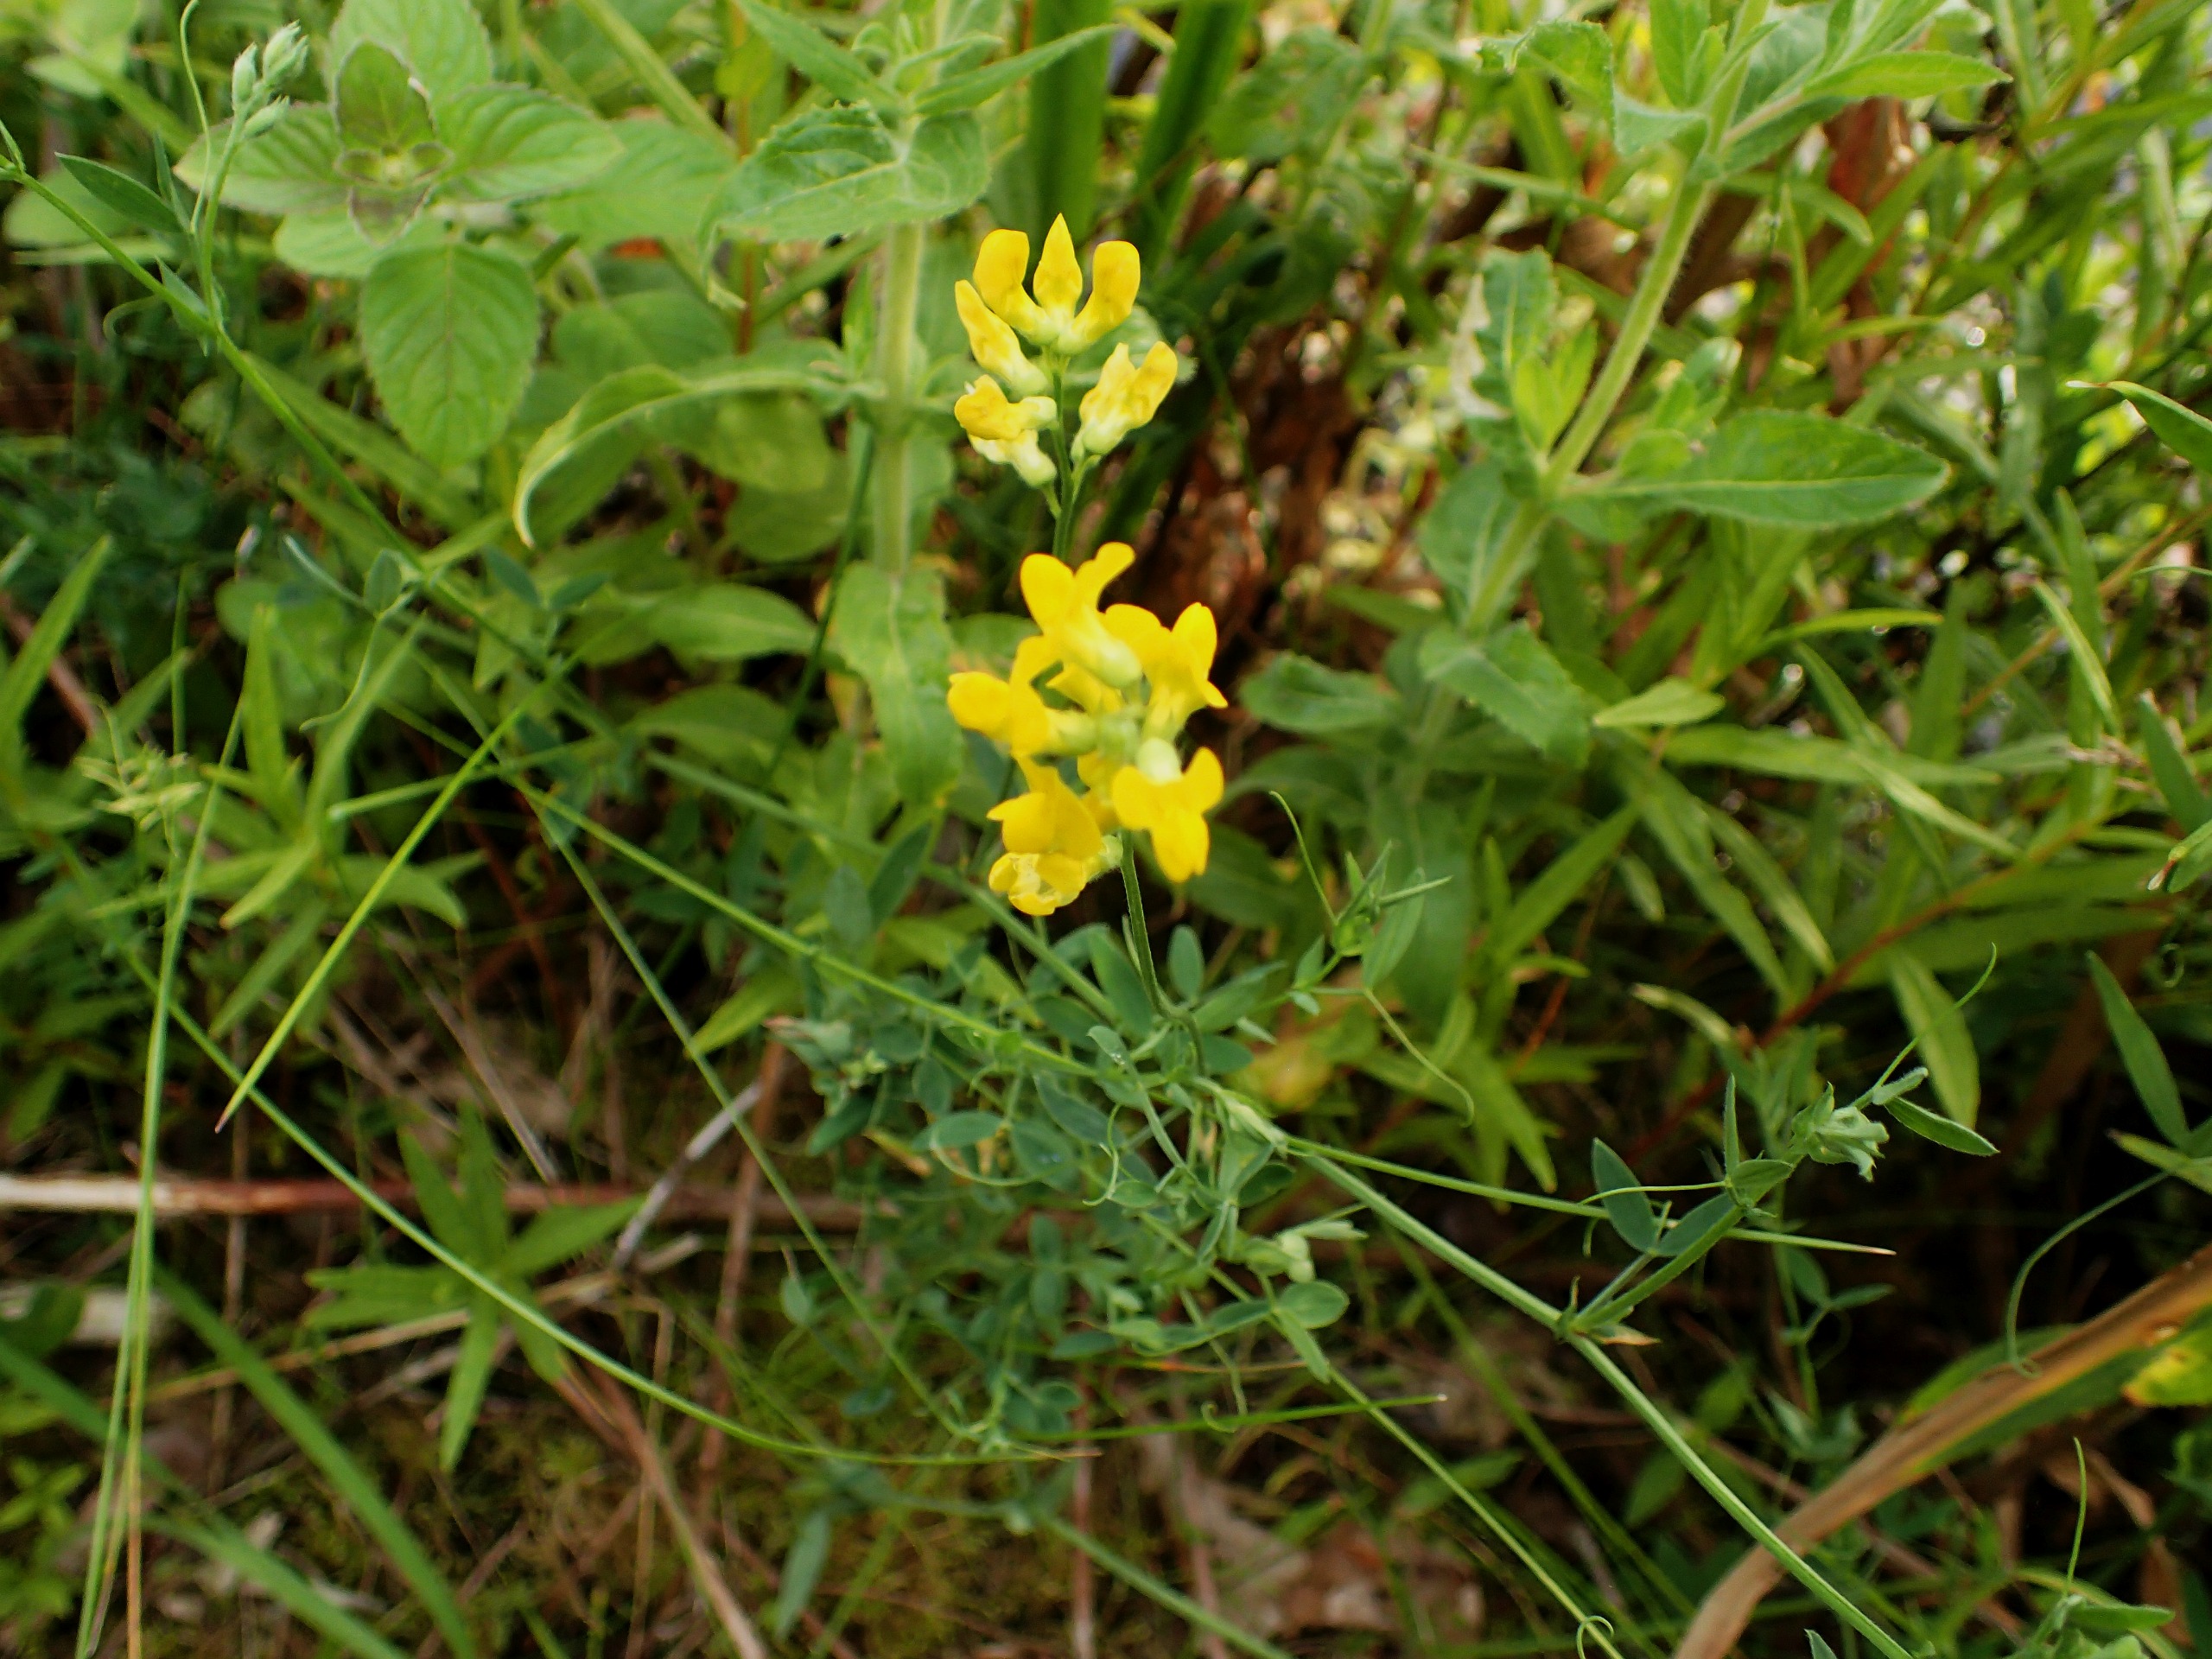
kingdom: Plantae
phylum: Tracheophyta
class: Magnoliopsida
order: Fabales
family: Fabaceae
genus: Lathyrus
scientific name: Lathyrus pratensis
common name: Gul fladbælg
